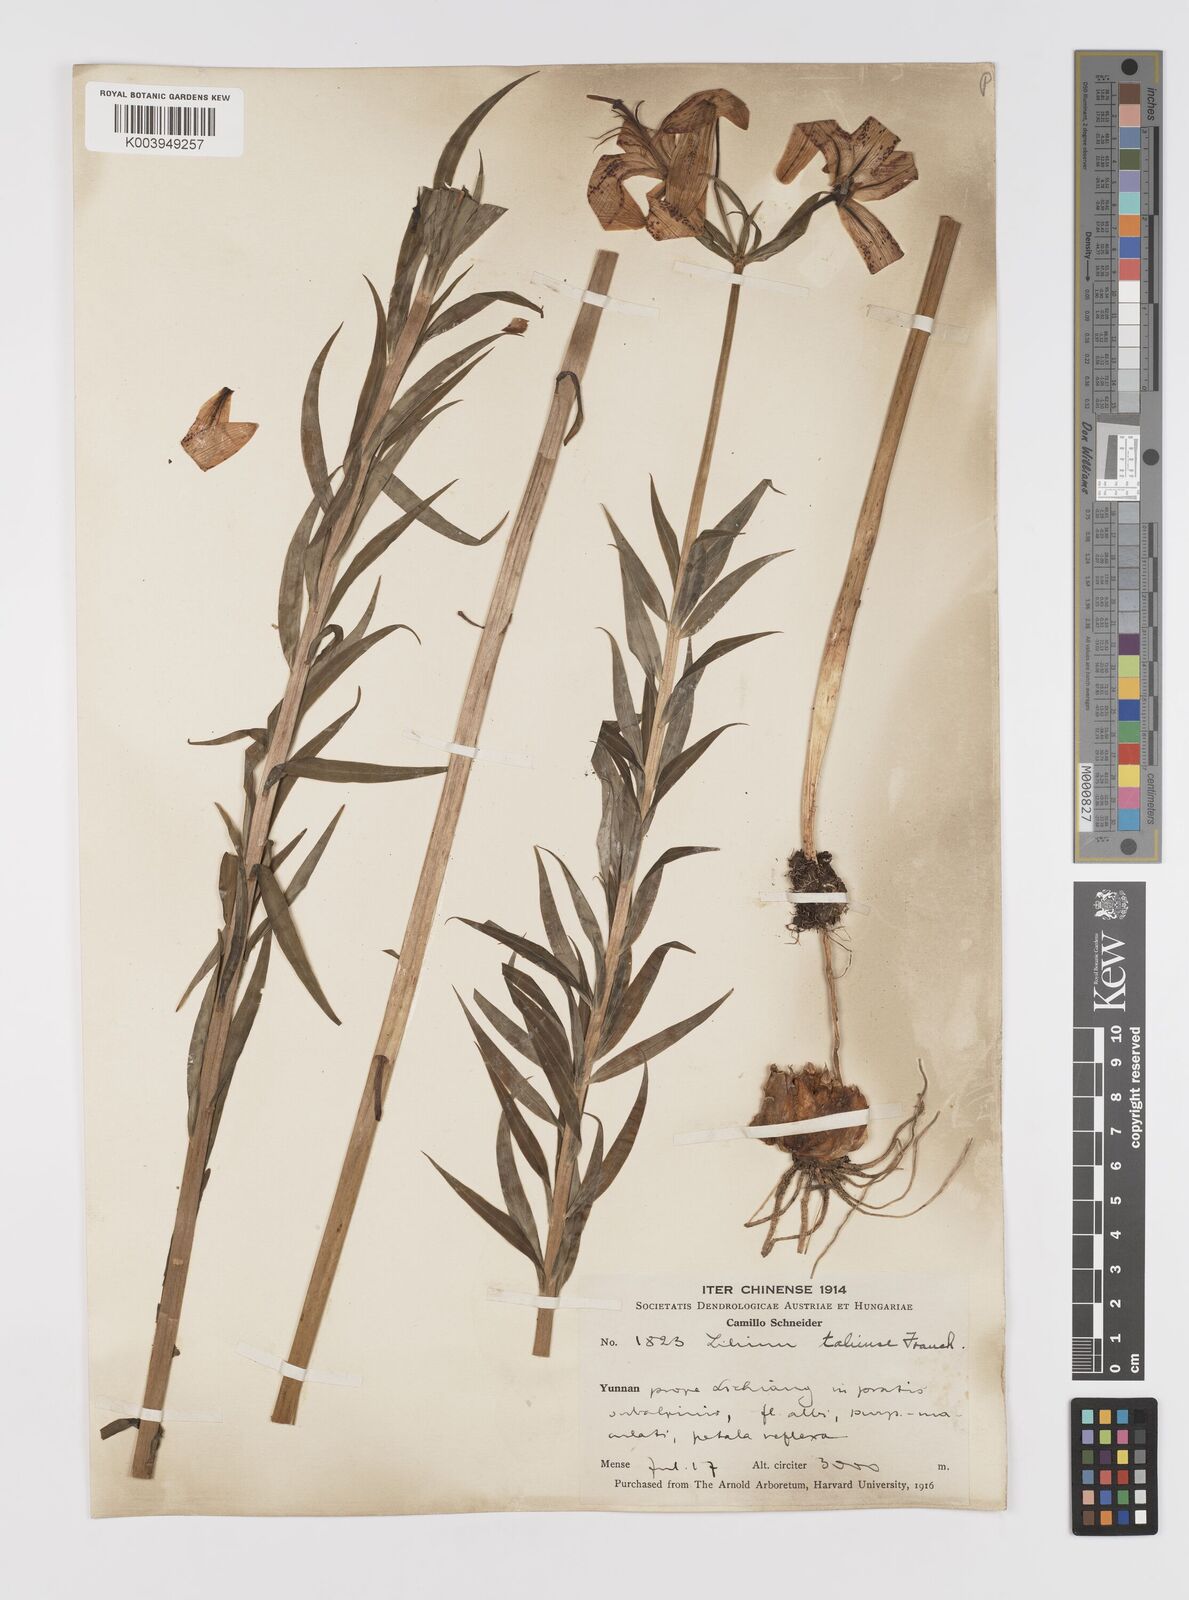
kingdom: Plantae
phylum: Tracheophyta
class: Liliopsida
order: Liliales
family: Liliaceae
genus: Lilium
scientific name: Lilium taliense
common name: Tali lily
